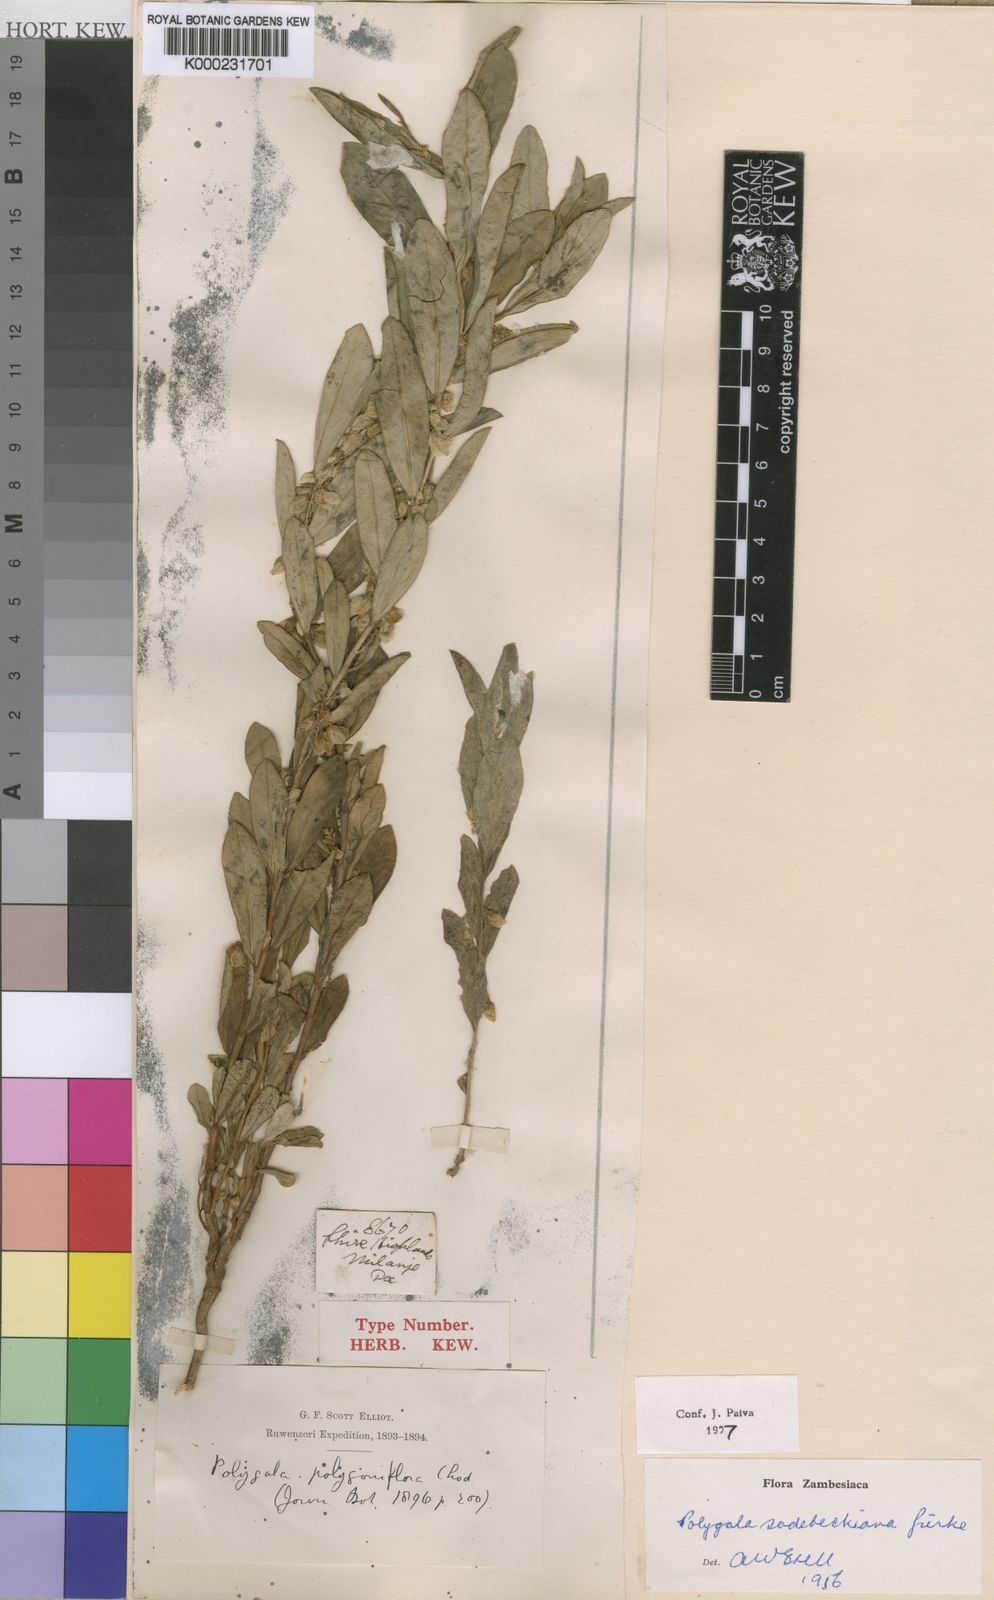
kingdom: Plantae
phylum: Tracheophyta
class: Magnoliopsida
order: Fabales
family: Polygalaceae
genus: Polygala
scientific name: Polygala
